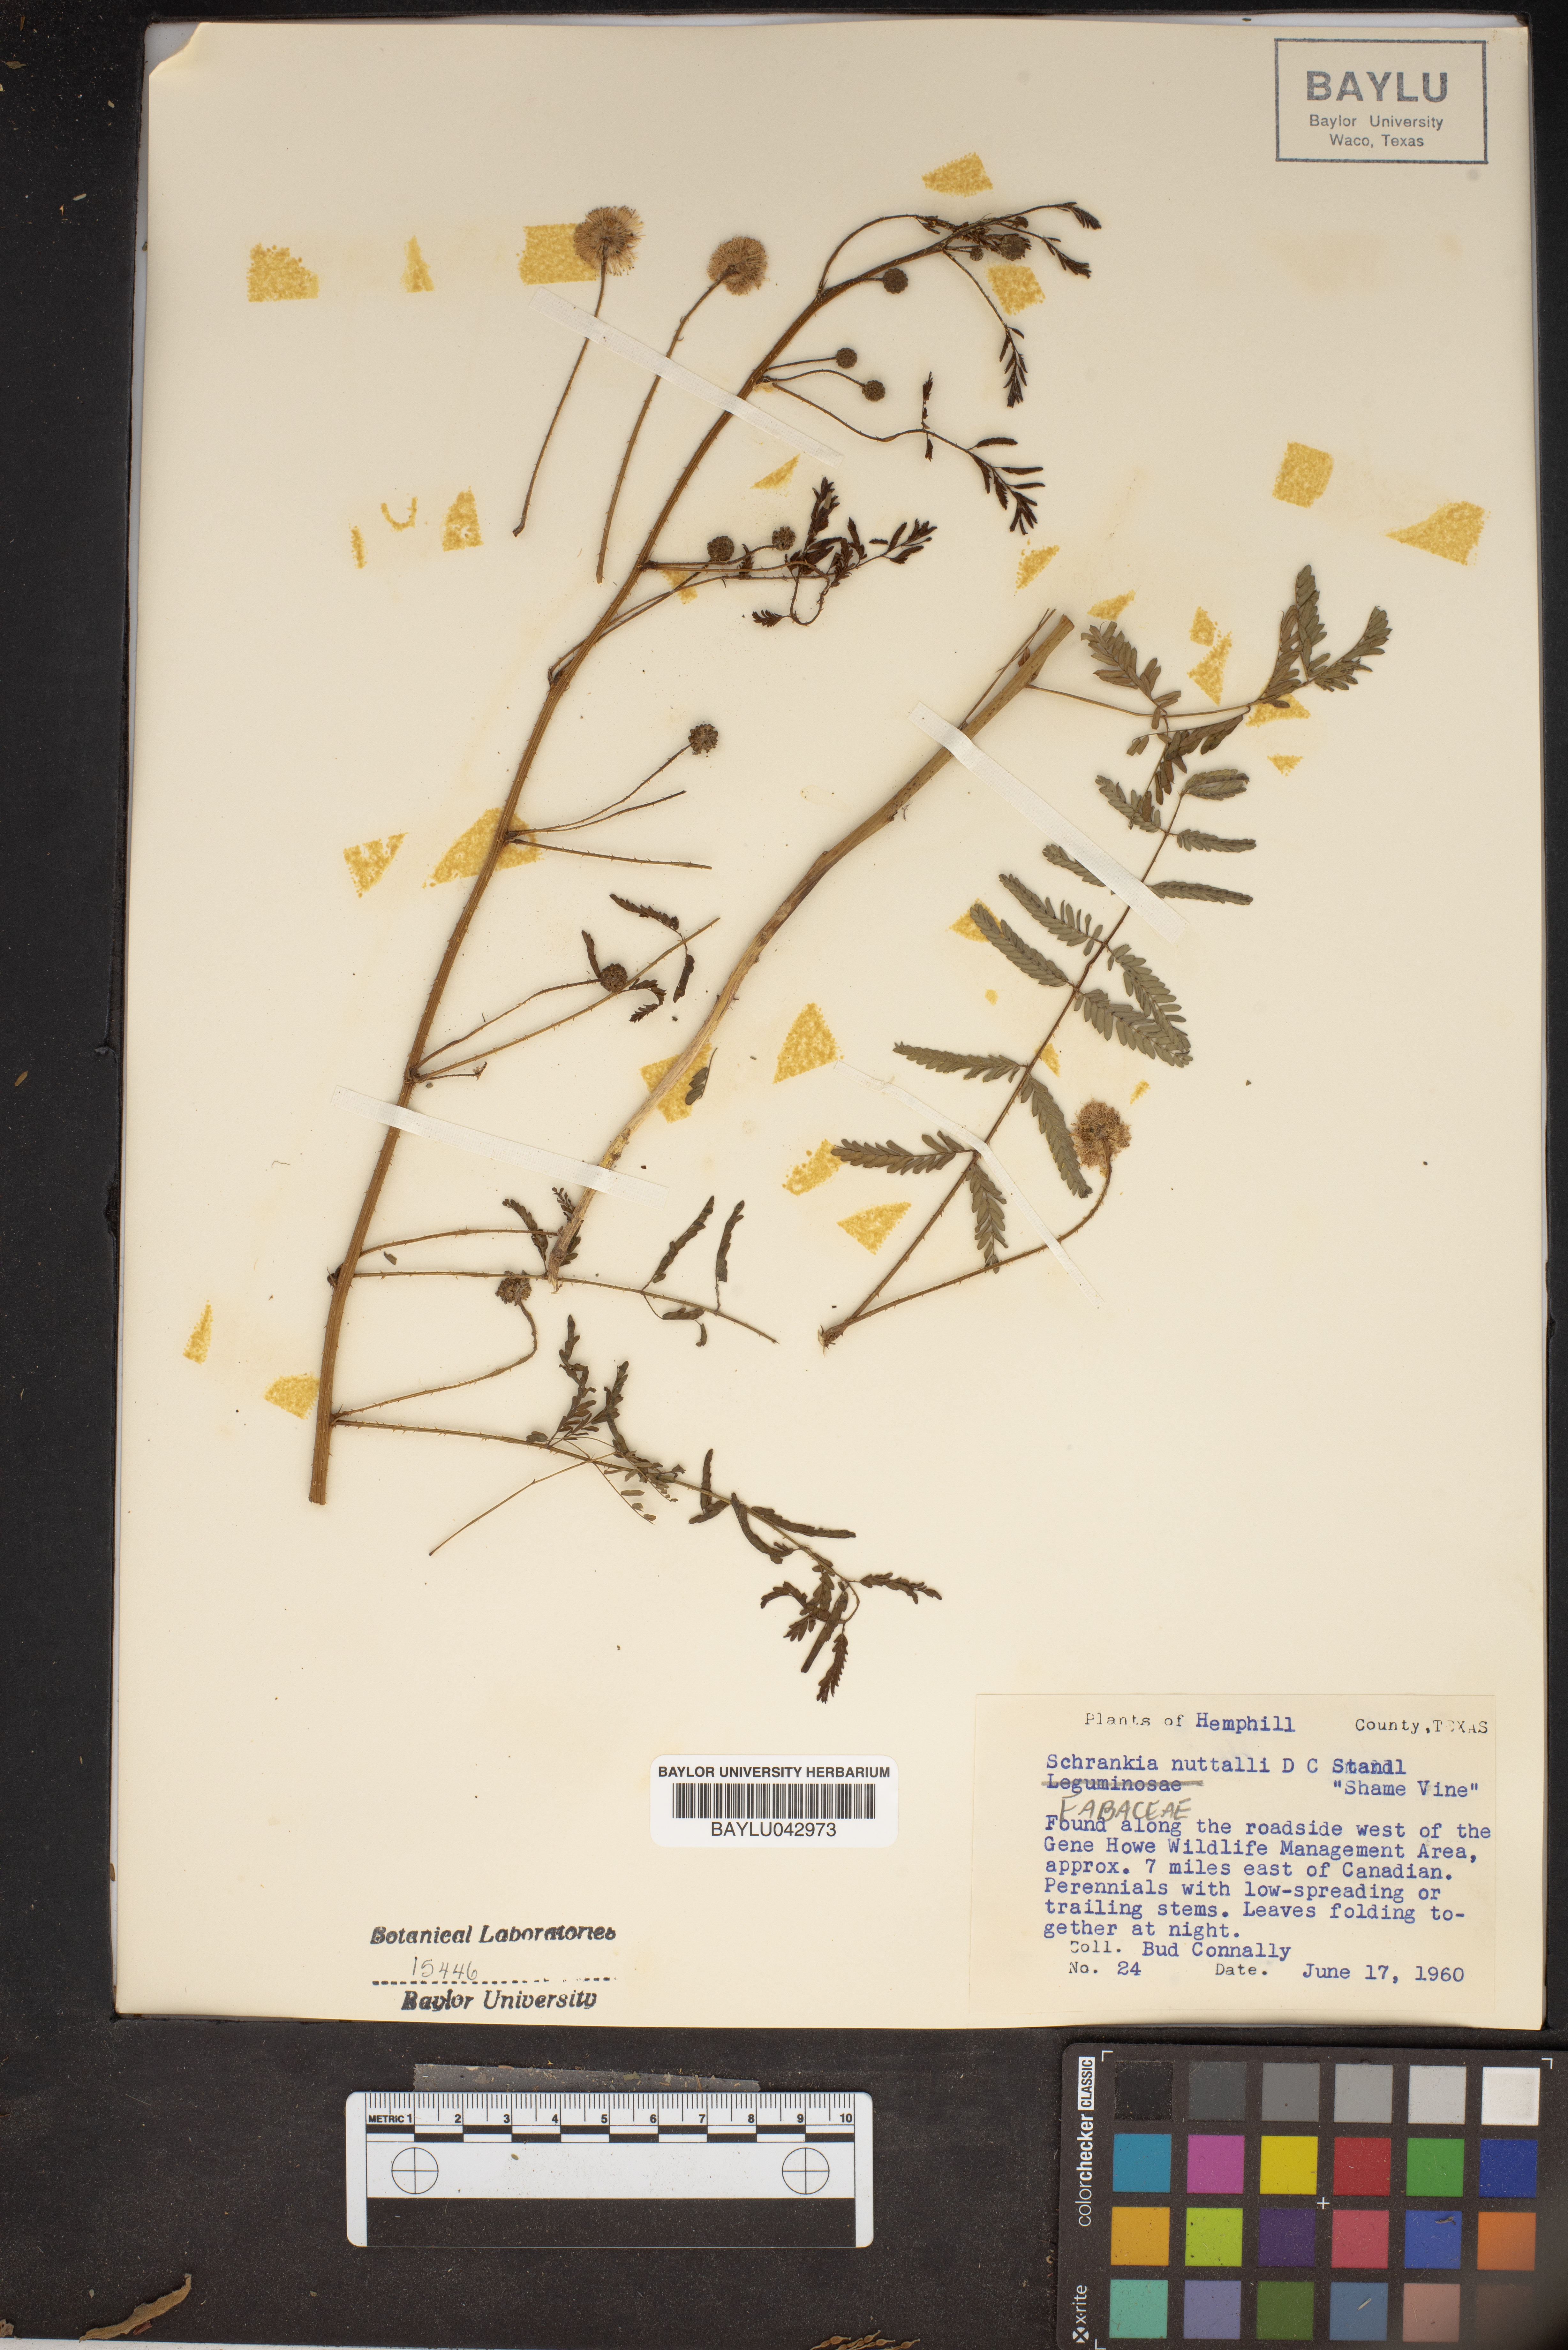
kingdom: Plantae
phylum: Tracheophyta
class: Magnoliopsida
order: Fabales
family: Fabaceae
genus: Mimosa
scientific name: Mimosa quadrivalvis
